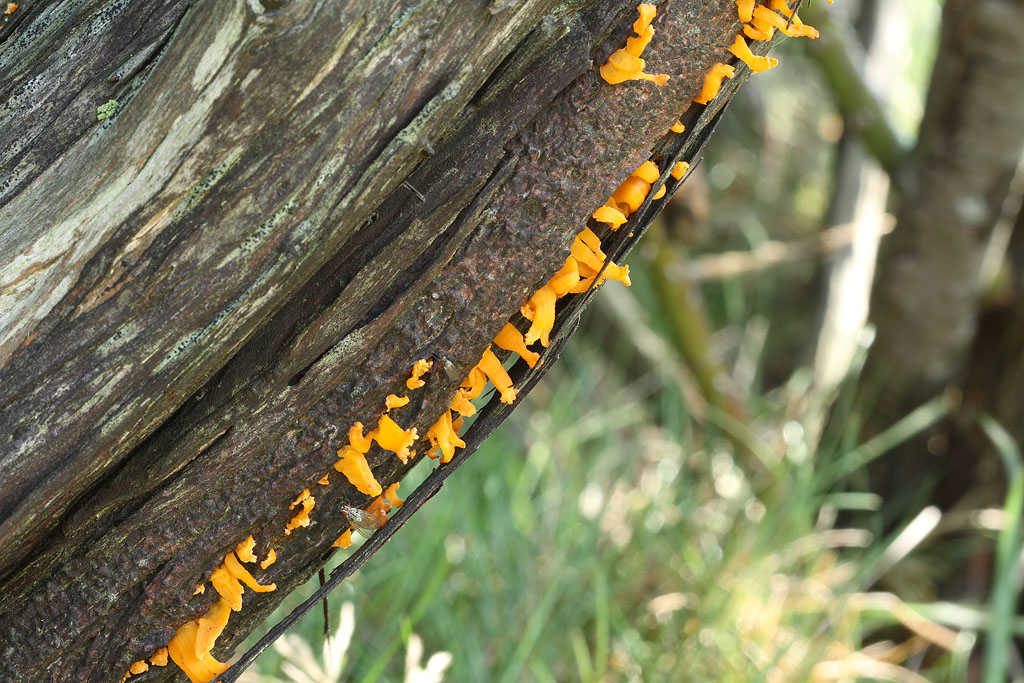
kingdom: Fungi
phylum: Basidiomycota
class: Pucciniomycetes
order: Pucciniales
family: Gymnosporangiaceae
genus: Gymnosporangium
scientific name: Gymnosporangium clavariiforme
